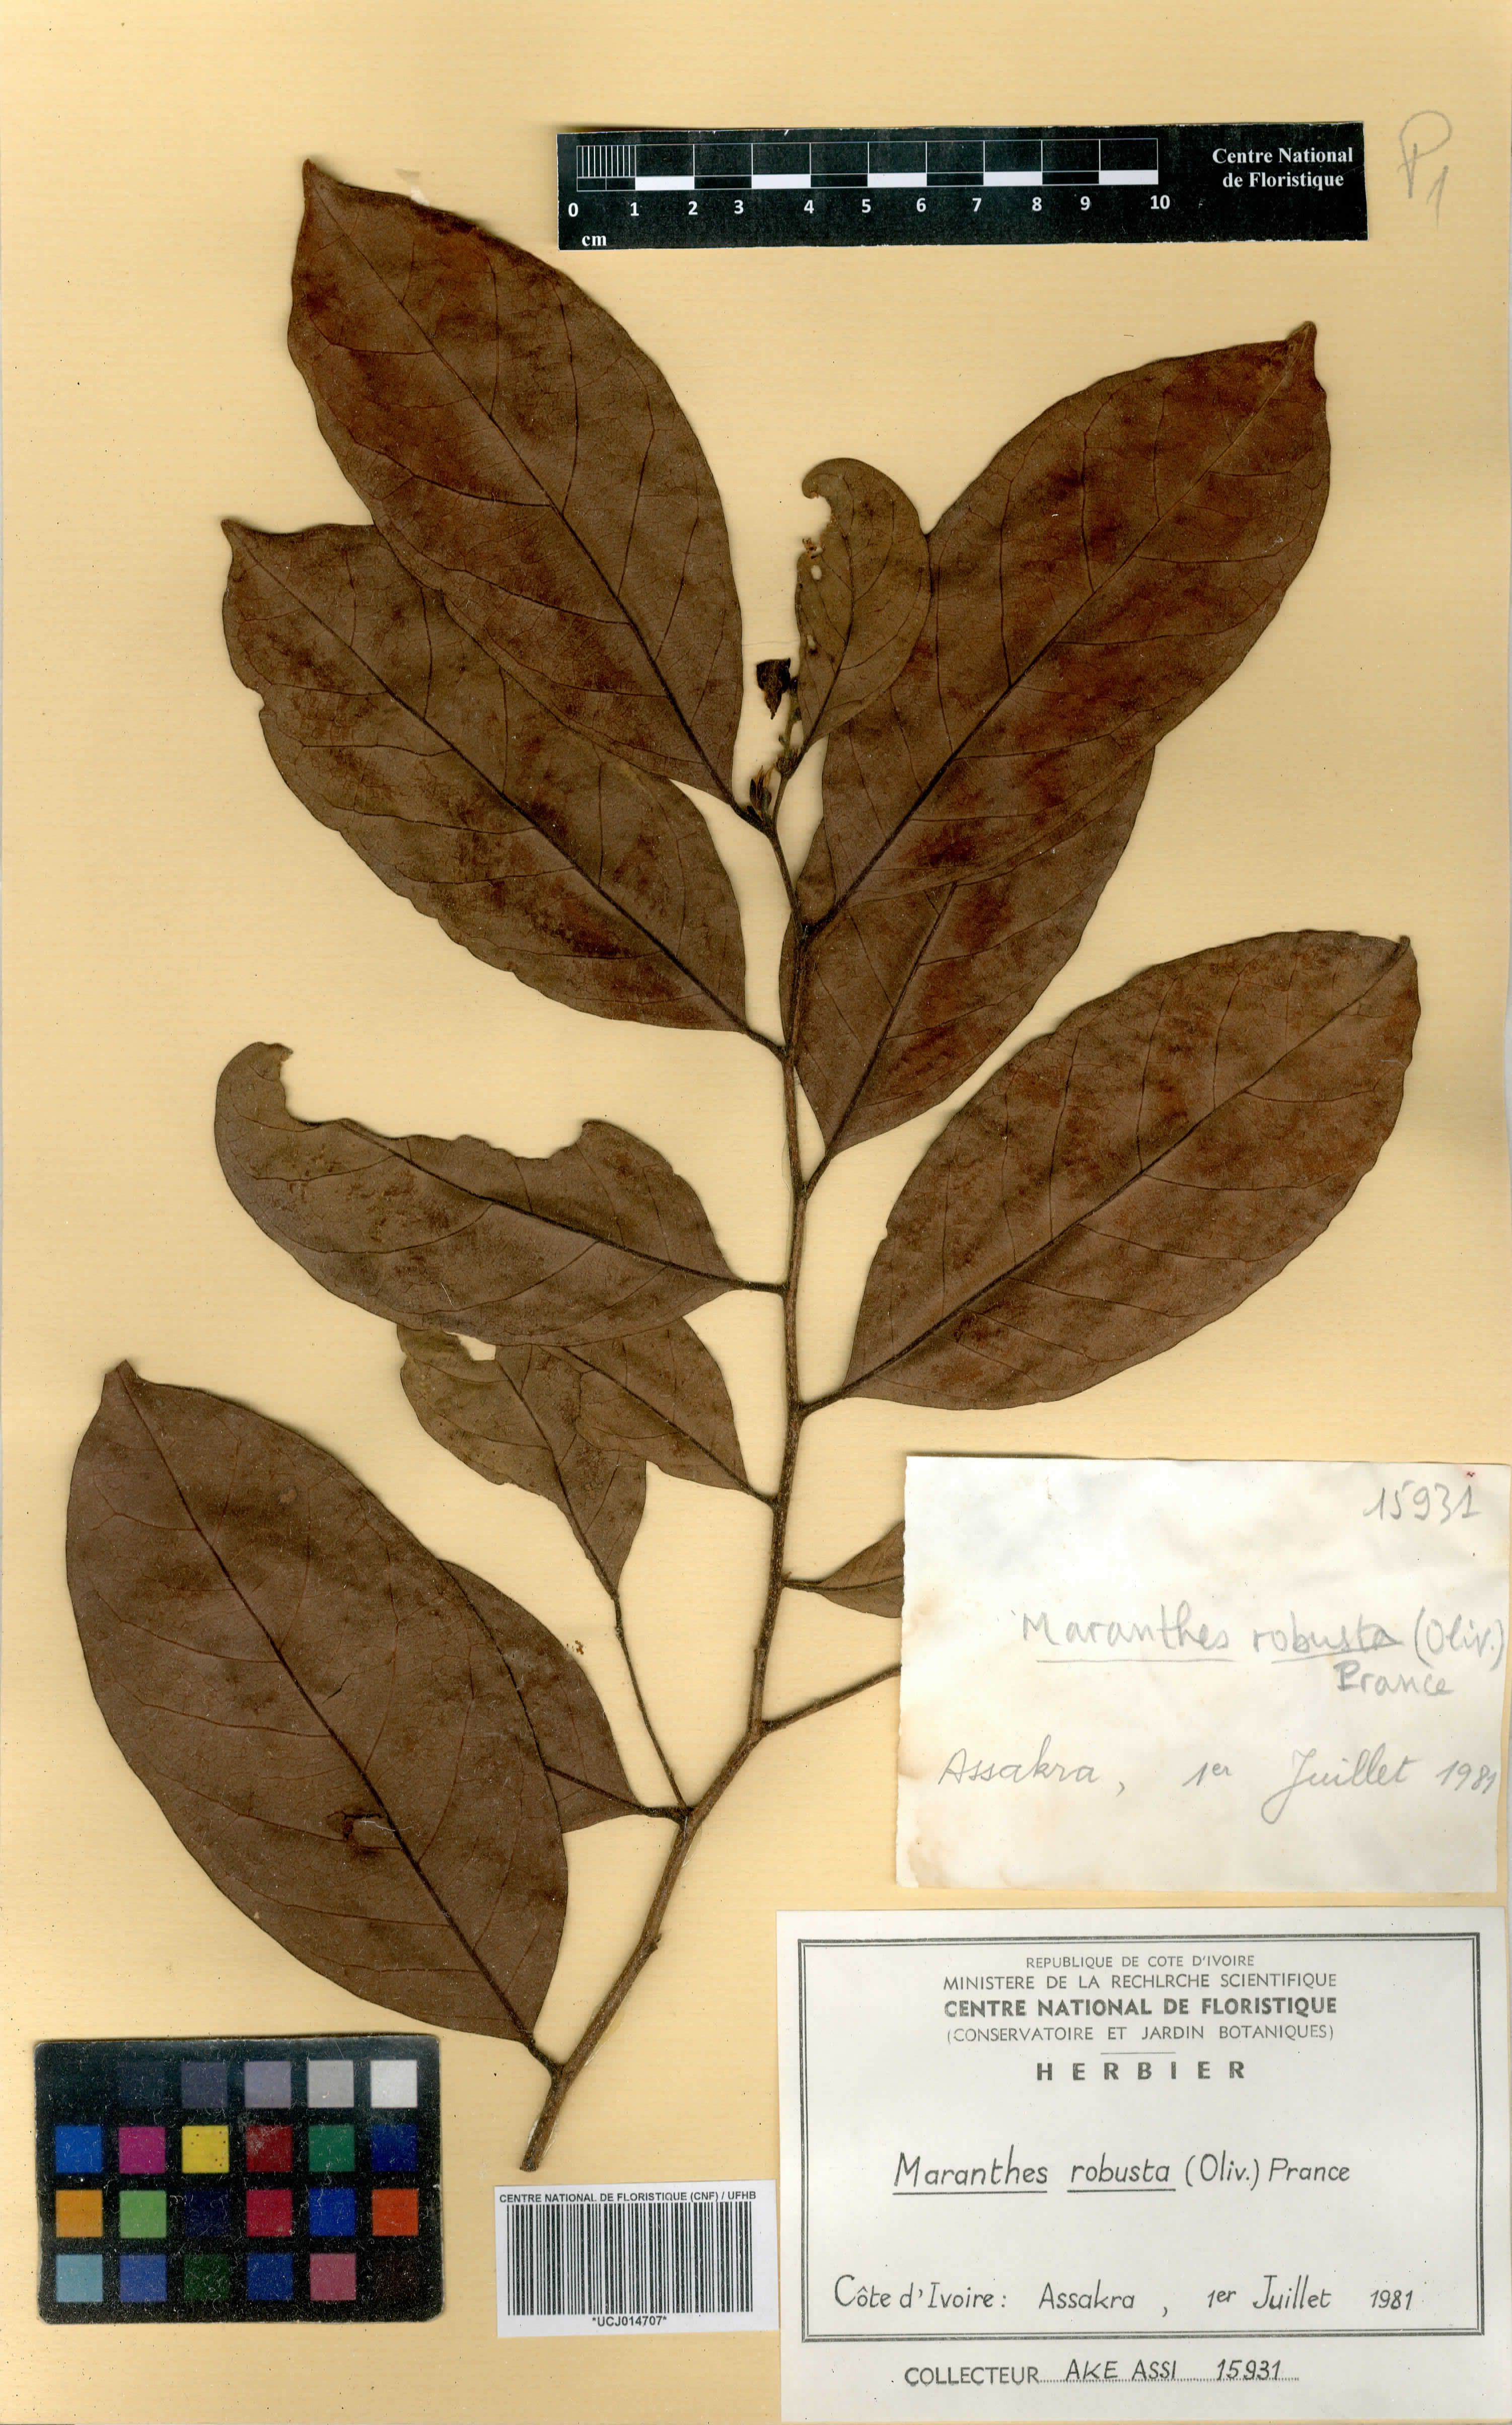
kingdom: Plantae
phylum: Tracheophyta
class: Magnoliopsida
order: Malpighiales
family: Chrysobalanaceae
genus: Maranthes
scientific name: Maranthes robusta
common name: Benin mahogany
